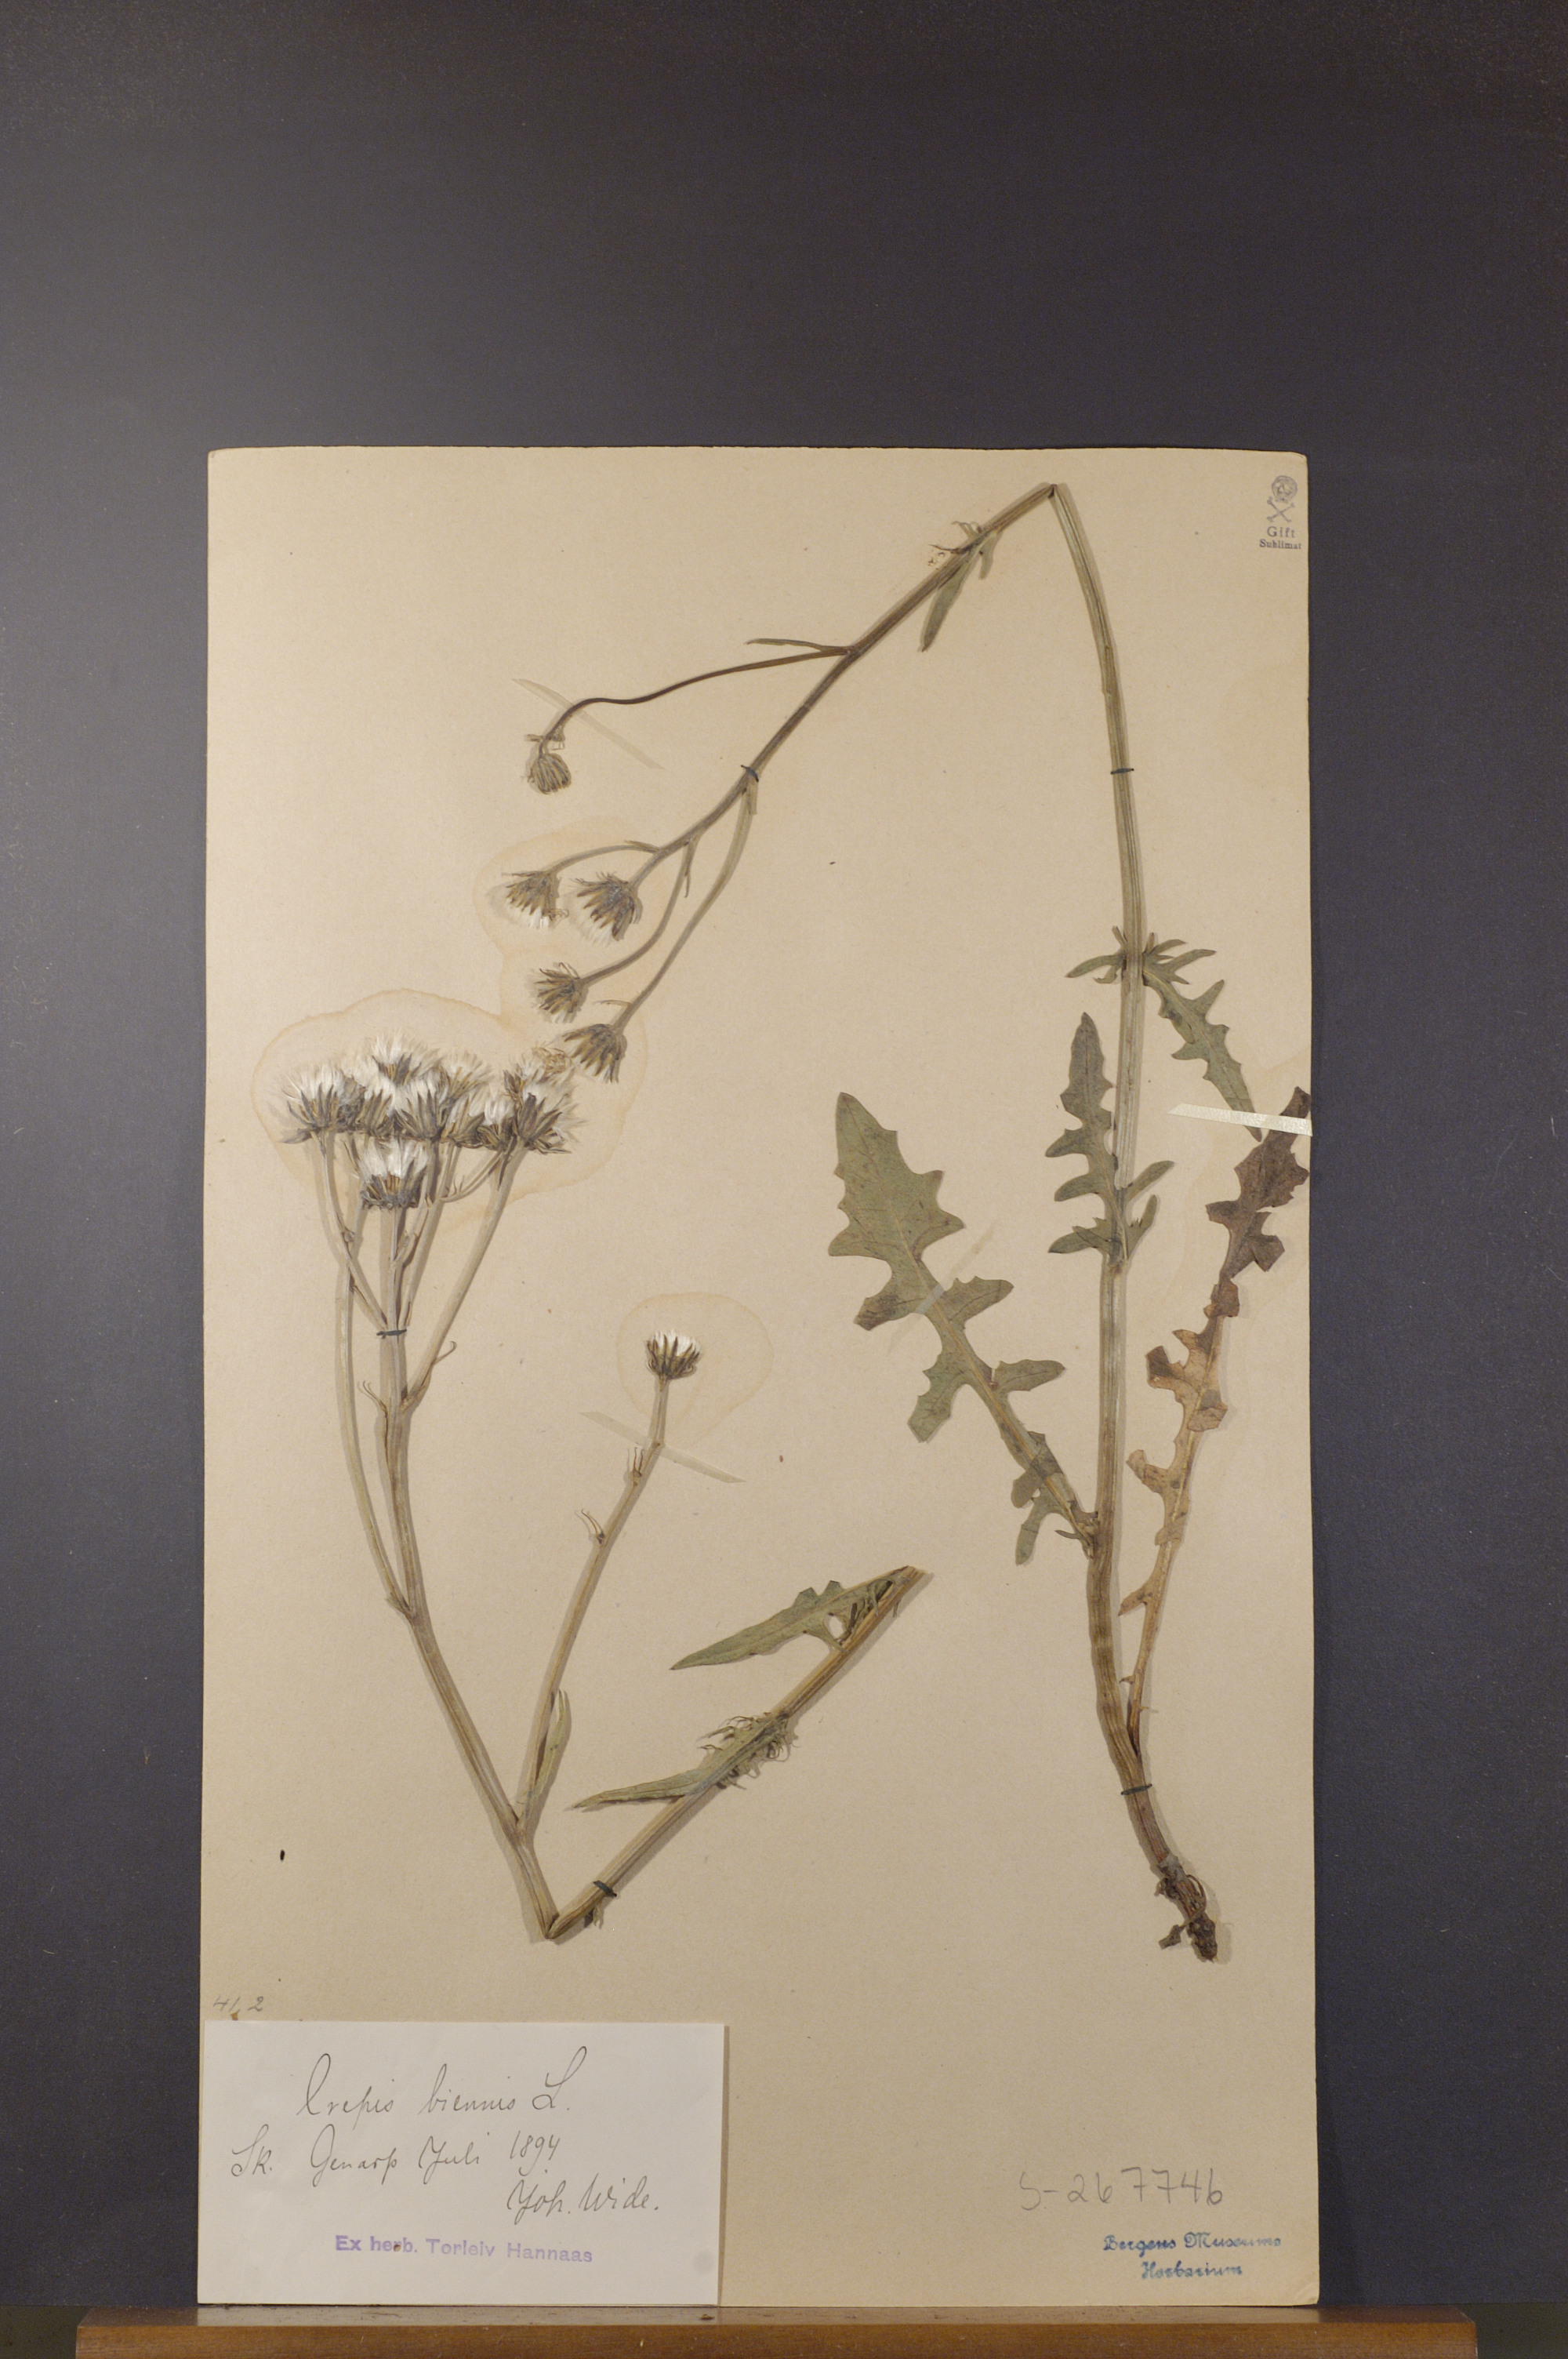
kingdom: Plantae
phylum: Tracheophyta
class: Magnoliopsida
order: Asterales
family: Asteraceae
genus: Crepis
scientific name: Crepis biennis
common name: Rough hawk's-beard
